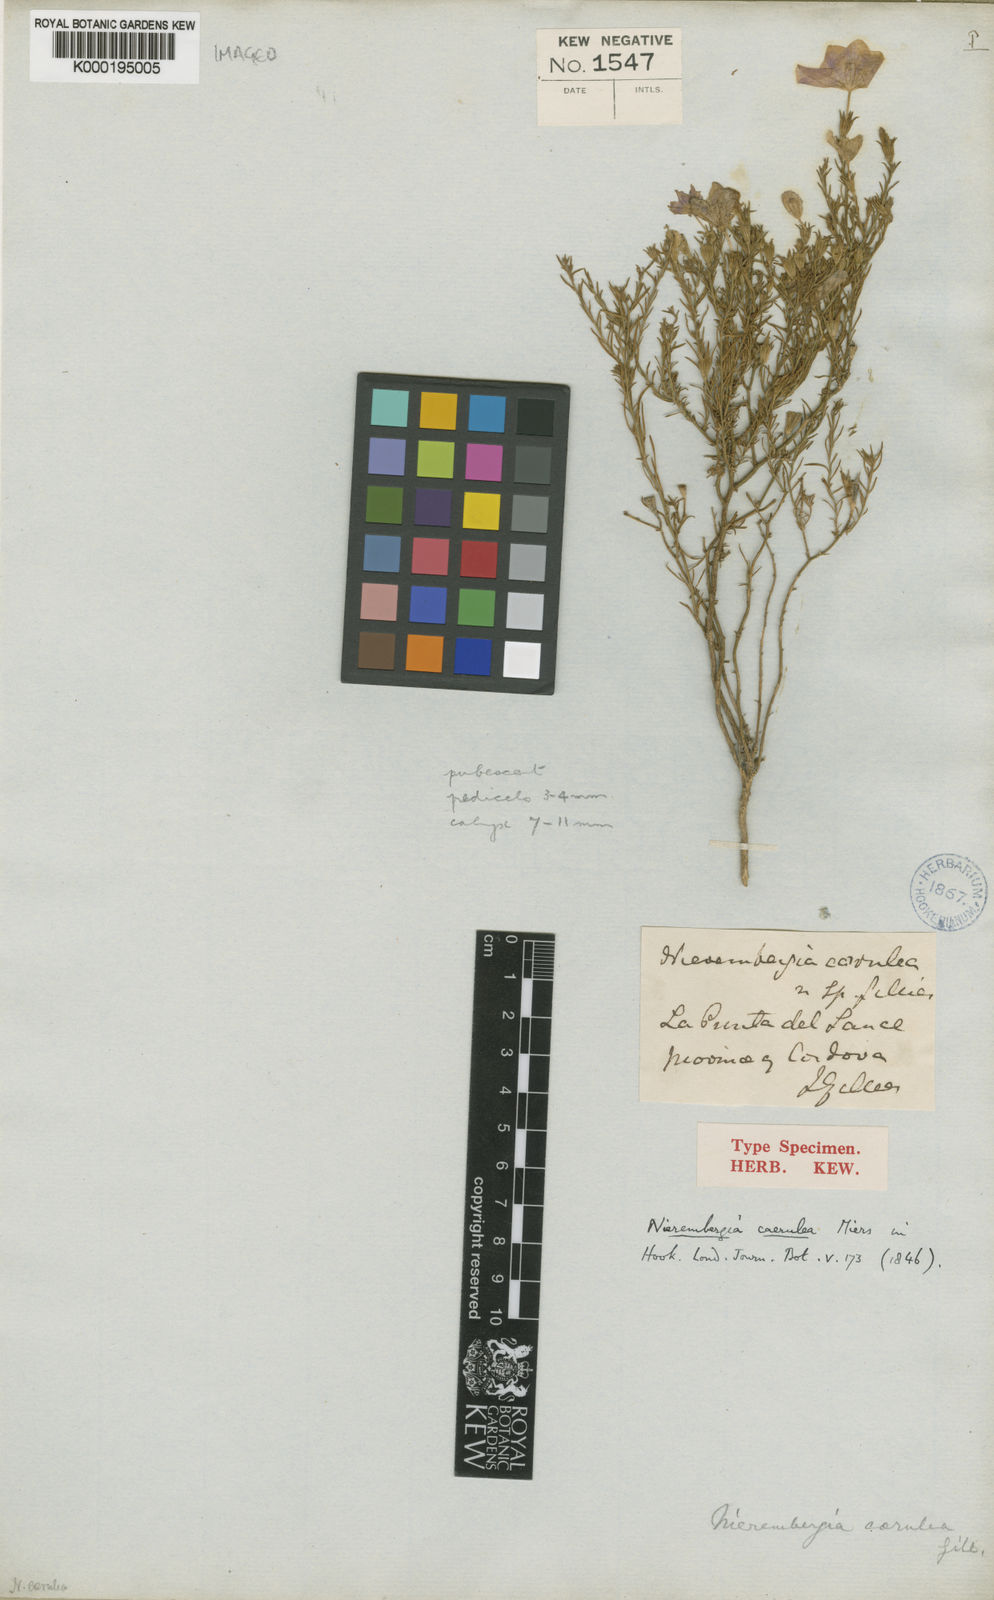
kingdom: Plantae
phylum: Tracheophyta
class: Magnoliopsida
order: Solanales
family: Solanaceae
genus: Nierembergia
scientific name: Nierembergia
